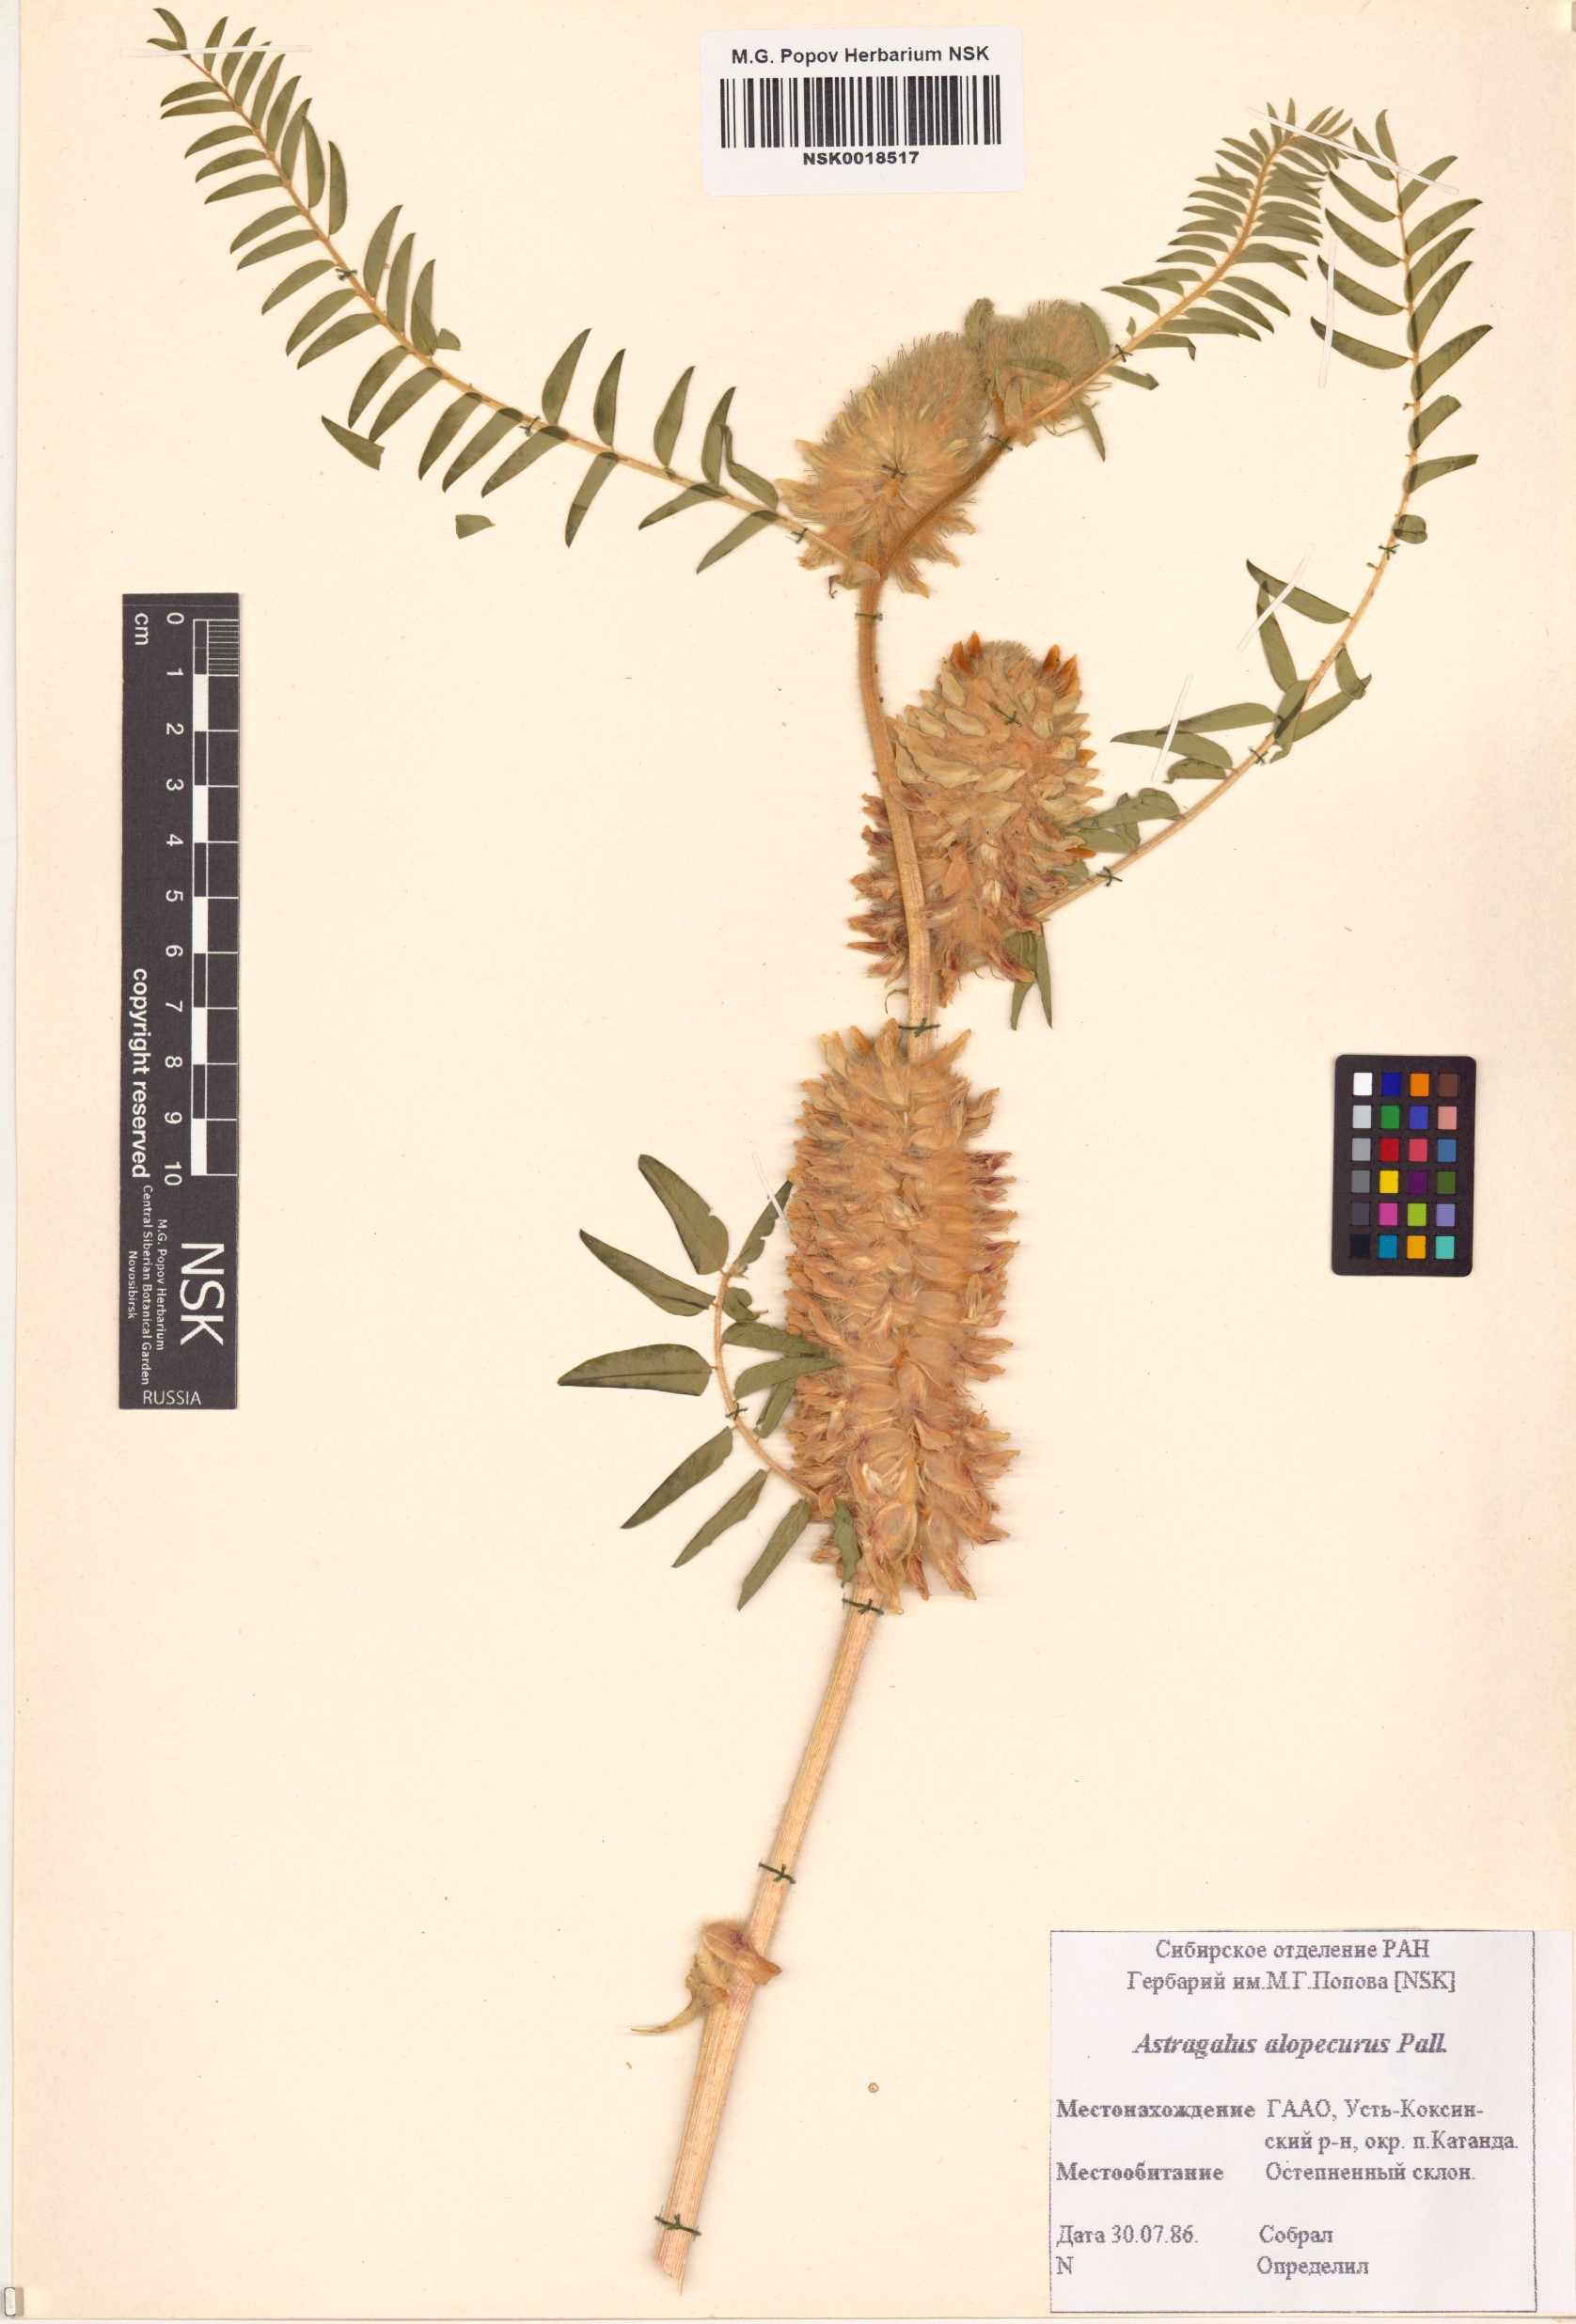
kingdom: Plantae
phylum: Tracheophyta
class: Magnoliopsida
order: Fabales
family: Fabaceae
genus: Astragalus
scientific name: Astragalus alopecurus
